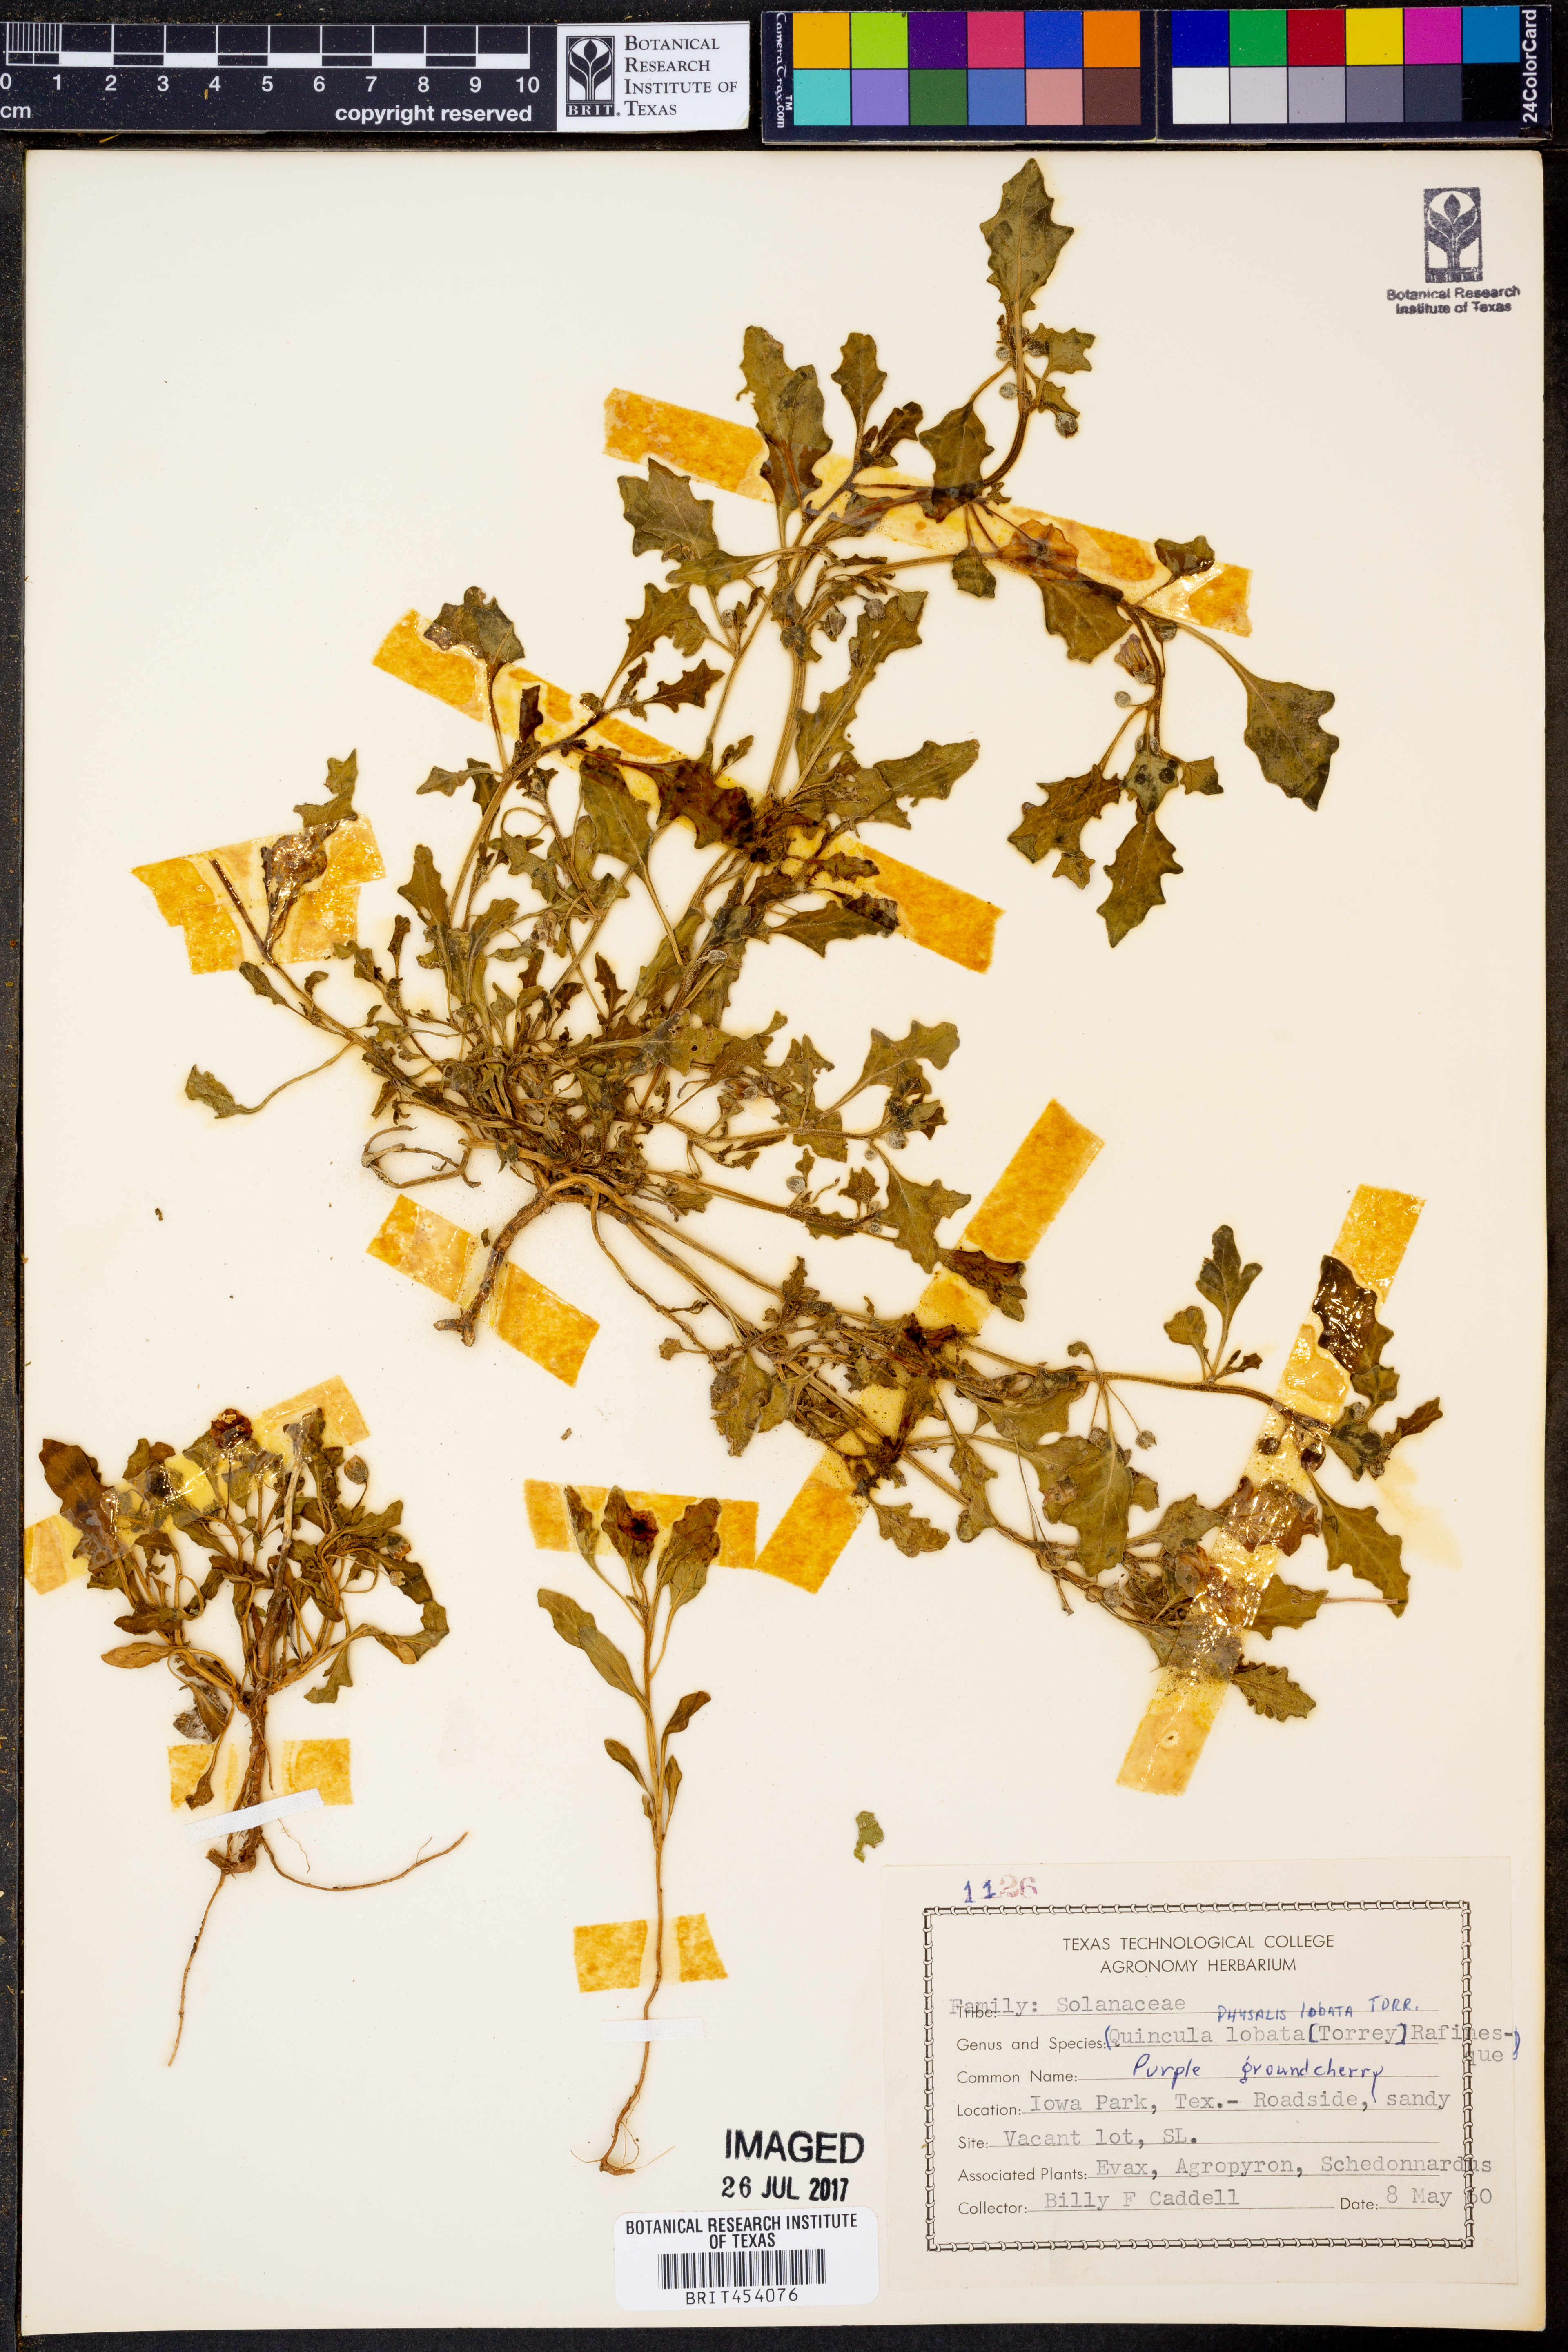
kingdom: Plantae
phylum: Tracheophyta
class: Magnoliopsida
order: Solanales
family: Solanaceae
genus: Quincula
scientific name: Quincula lobata
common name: Purple-ground-cherry
